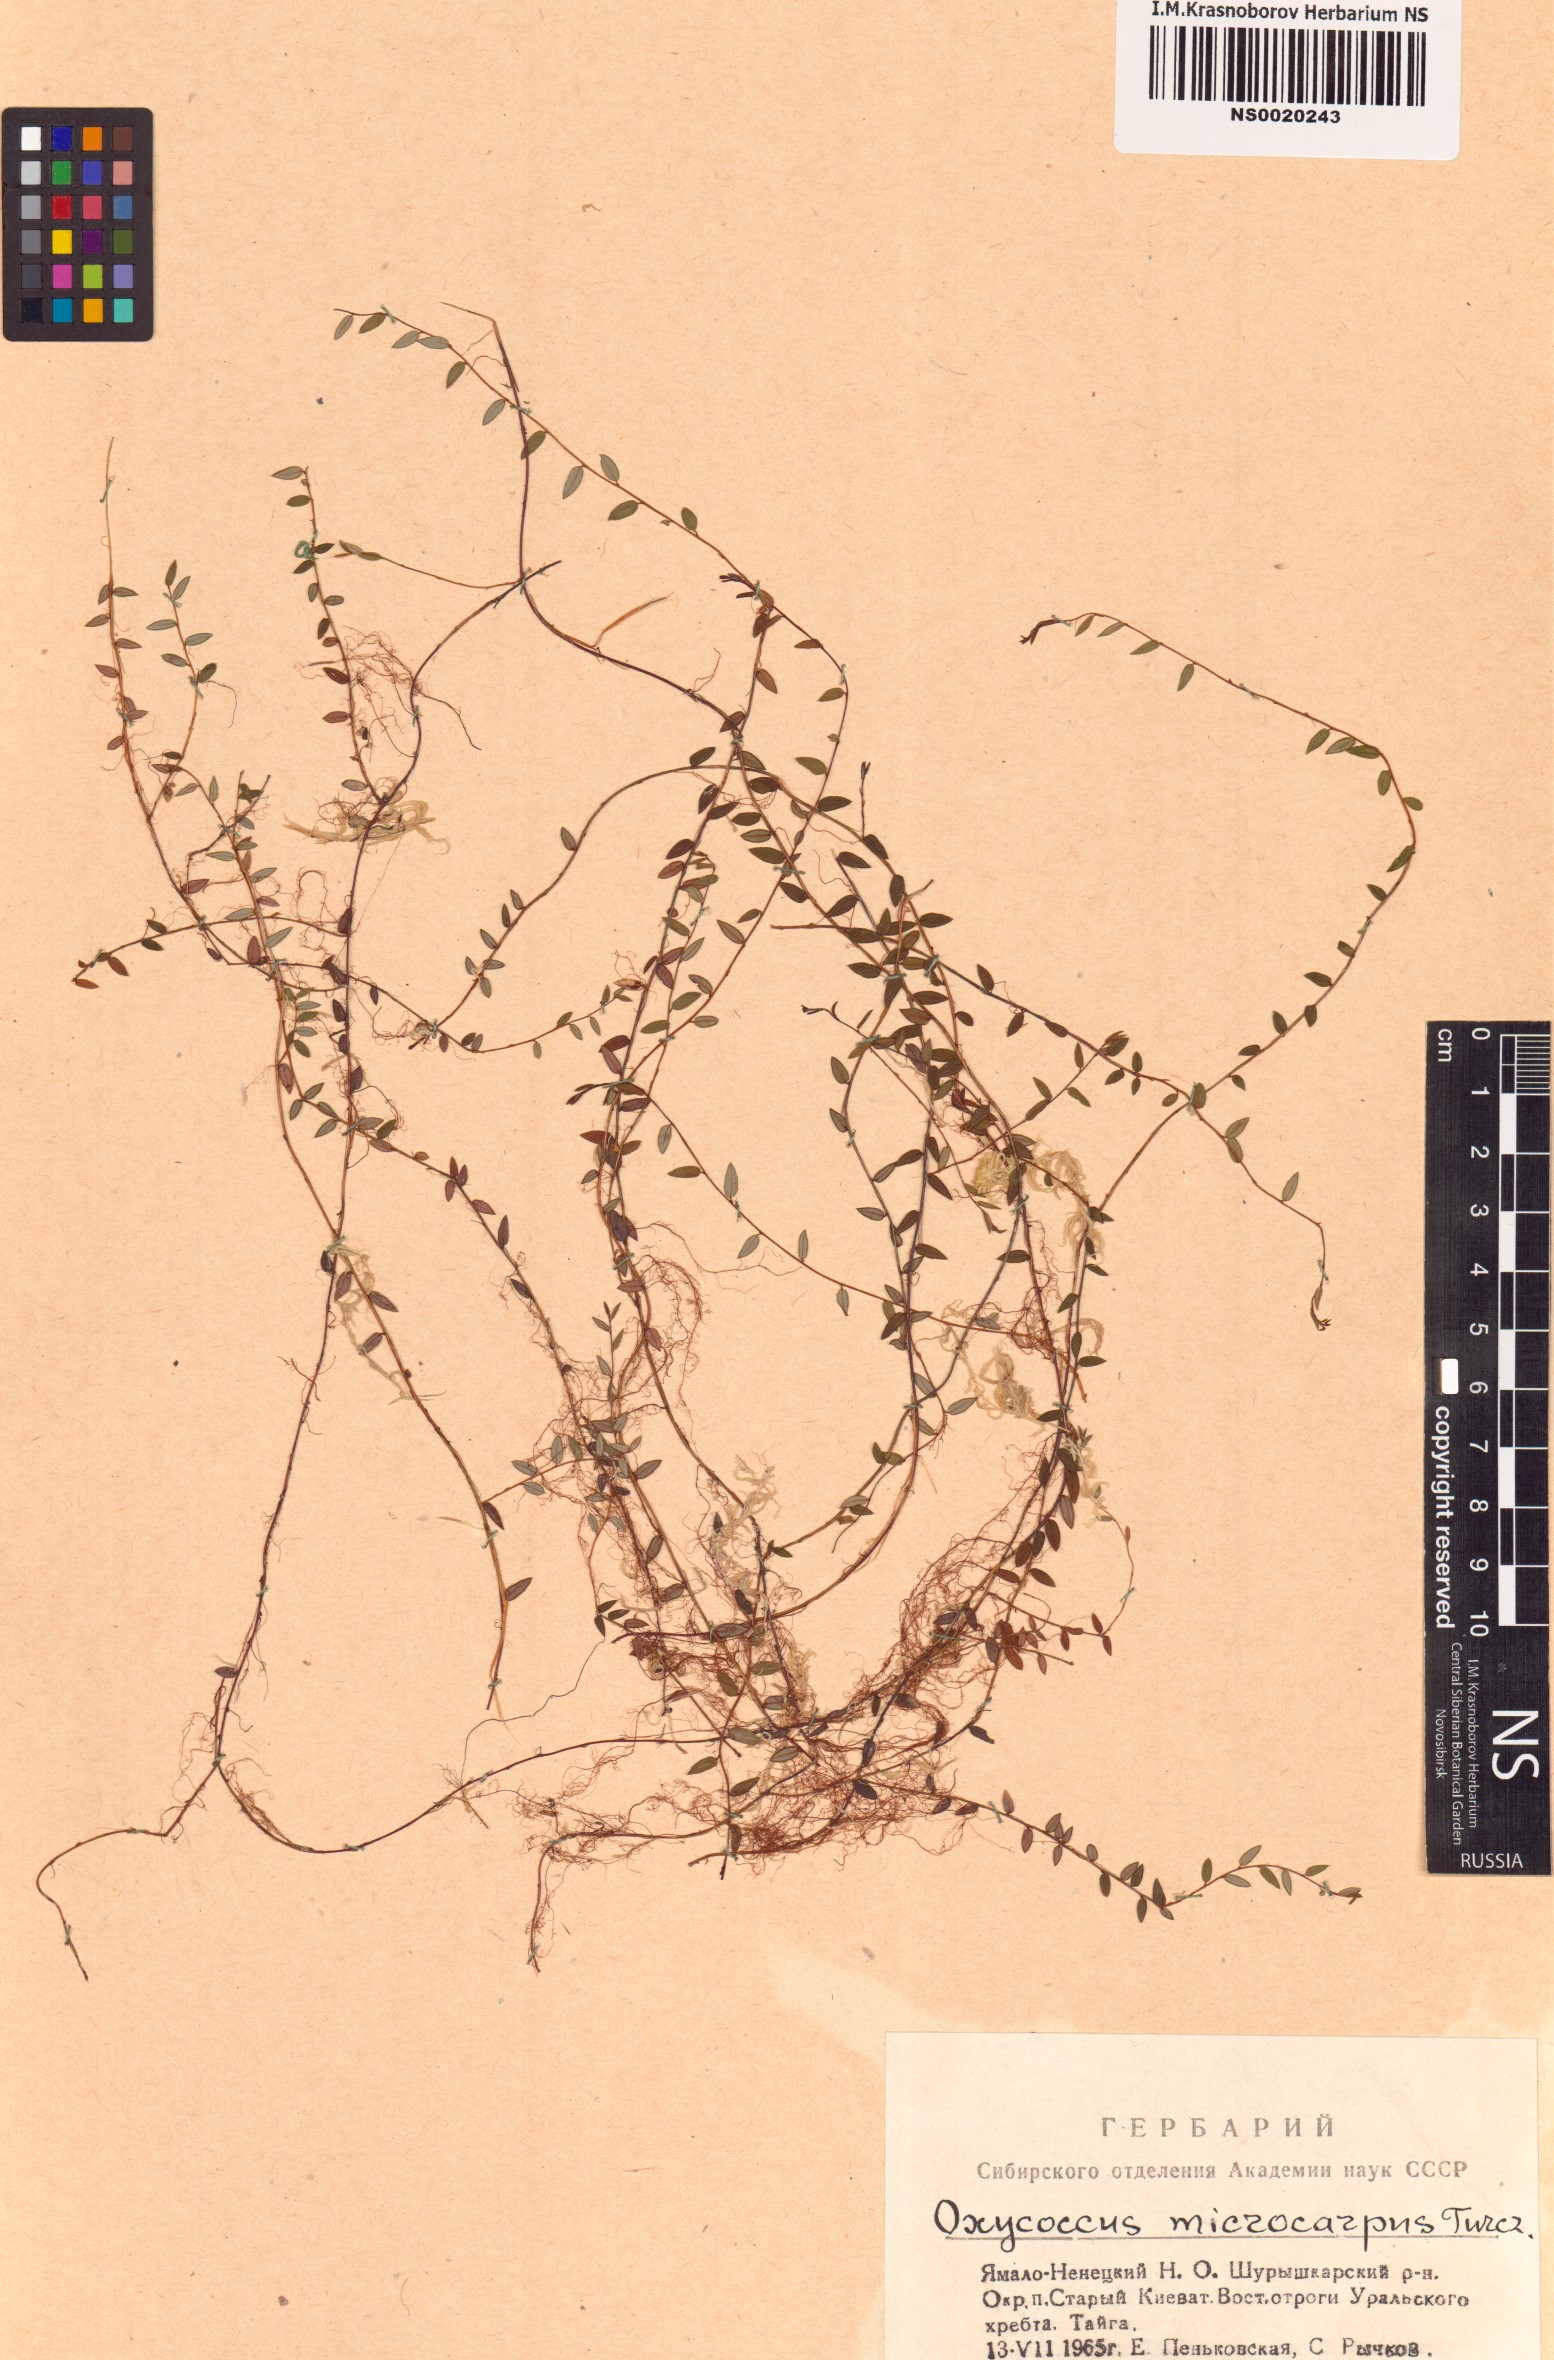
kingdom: Plantae
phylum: Tracheophyta
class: Magnoliopsida
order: Ericales
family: Ericaceae
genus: Vaccinium
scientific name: Vaccinium microcarpum
